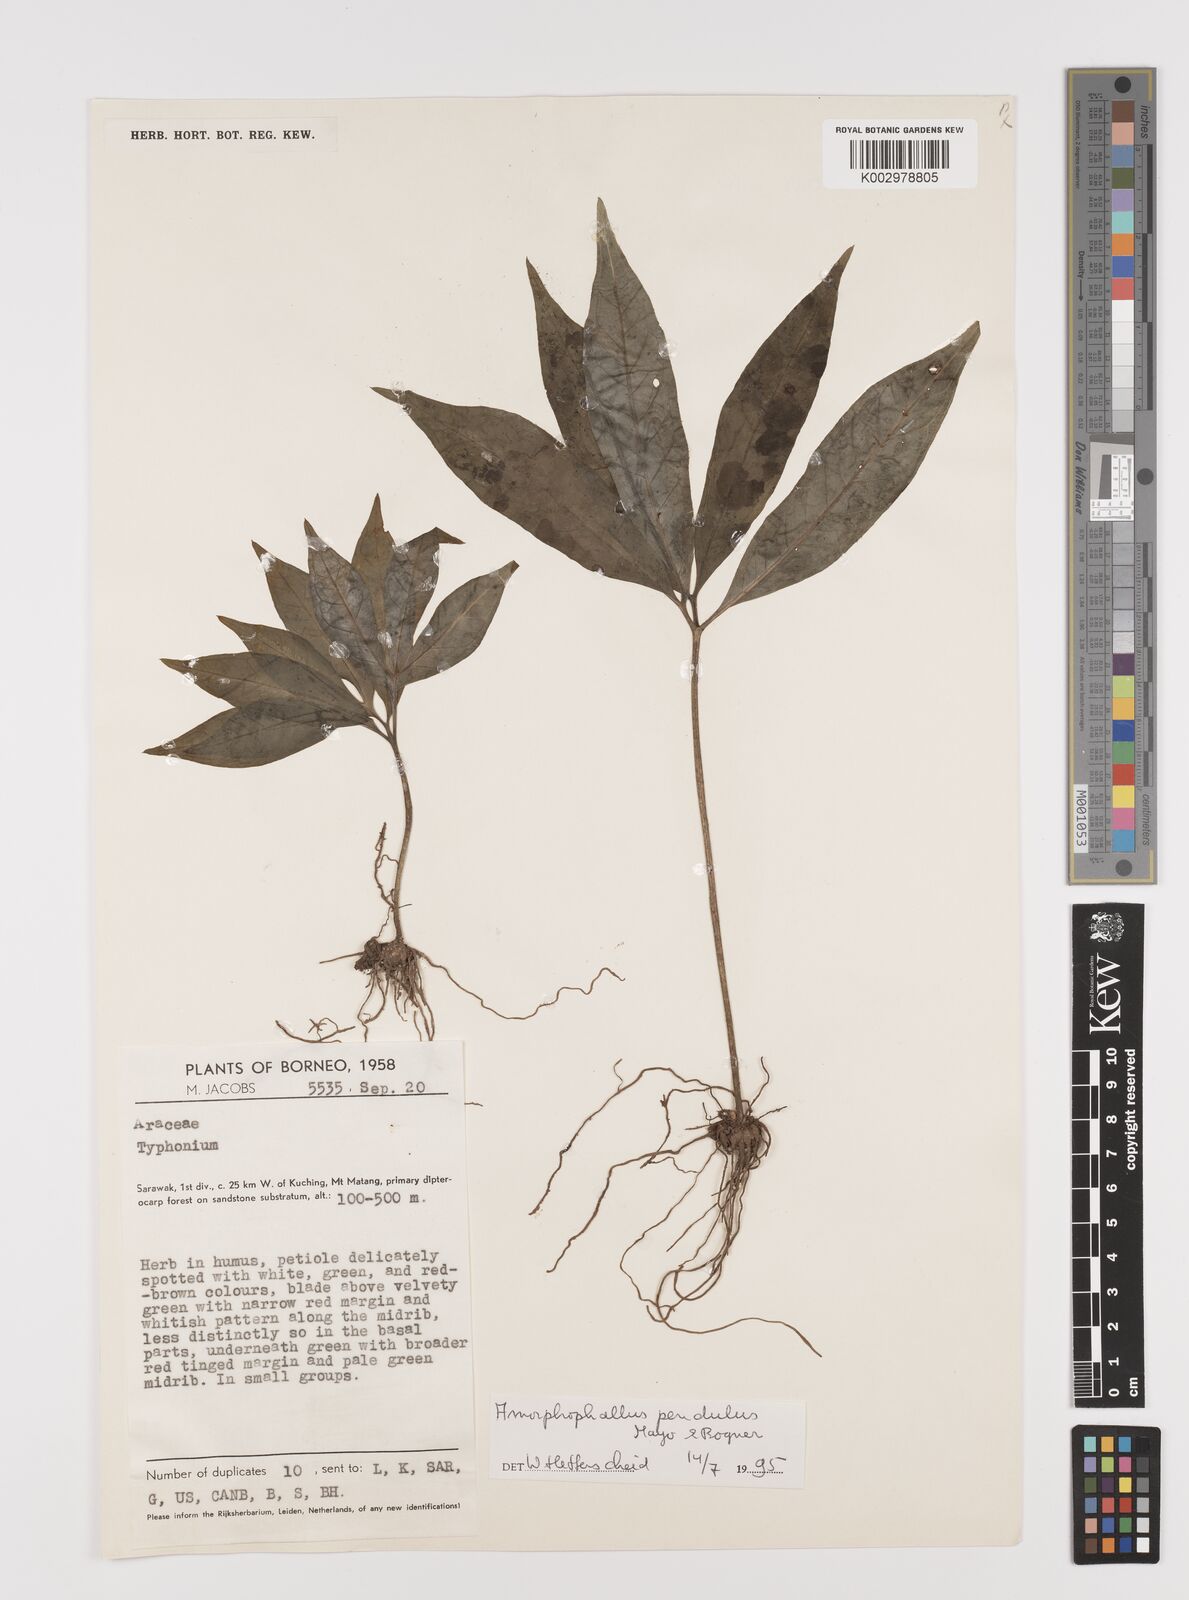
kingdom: Plantae
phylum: Tracheophyta
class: Liliopsida
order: Alismatales
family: Araceae
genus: Amorphophallus
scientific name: Amorphophallus pendulus
